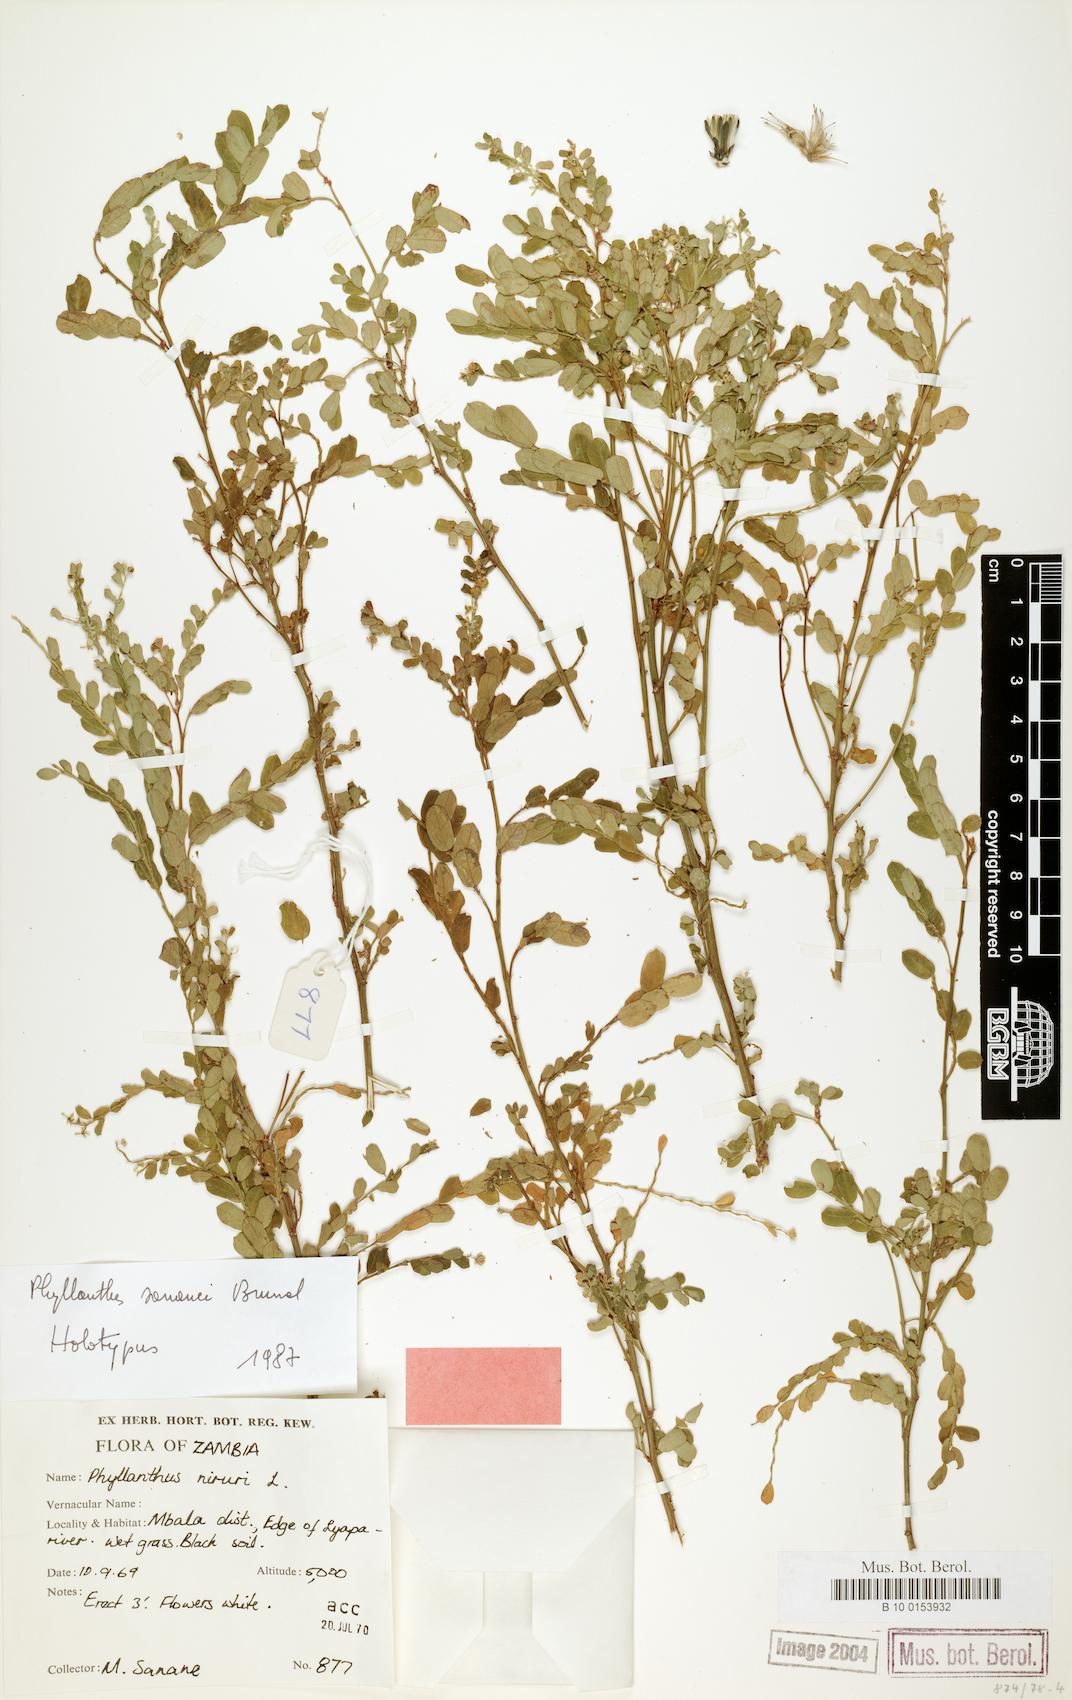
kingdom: Plantae
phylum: Tracheophyta
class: Magnoliopsida
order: Malpighiales
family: Phyllanthaceae
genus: Phyllanthus
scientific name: Phyllanthus pseudoniruri
